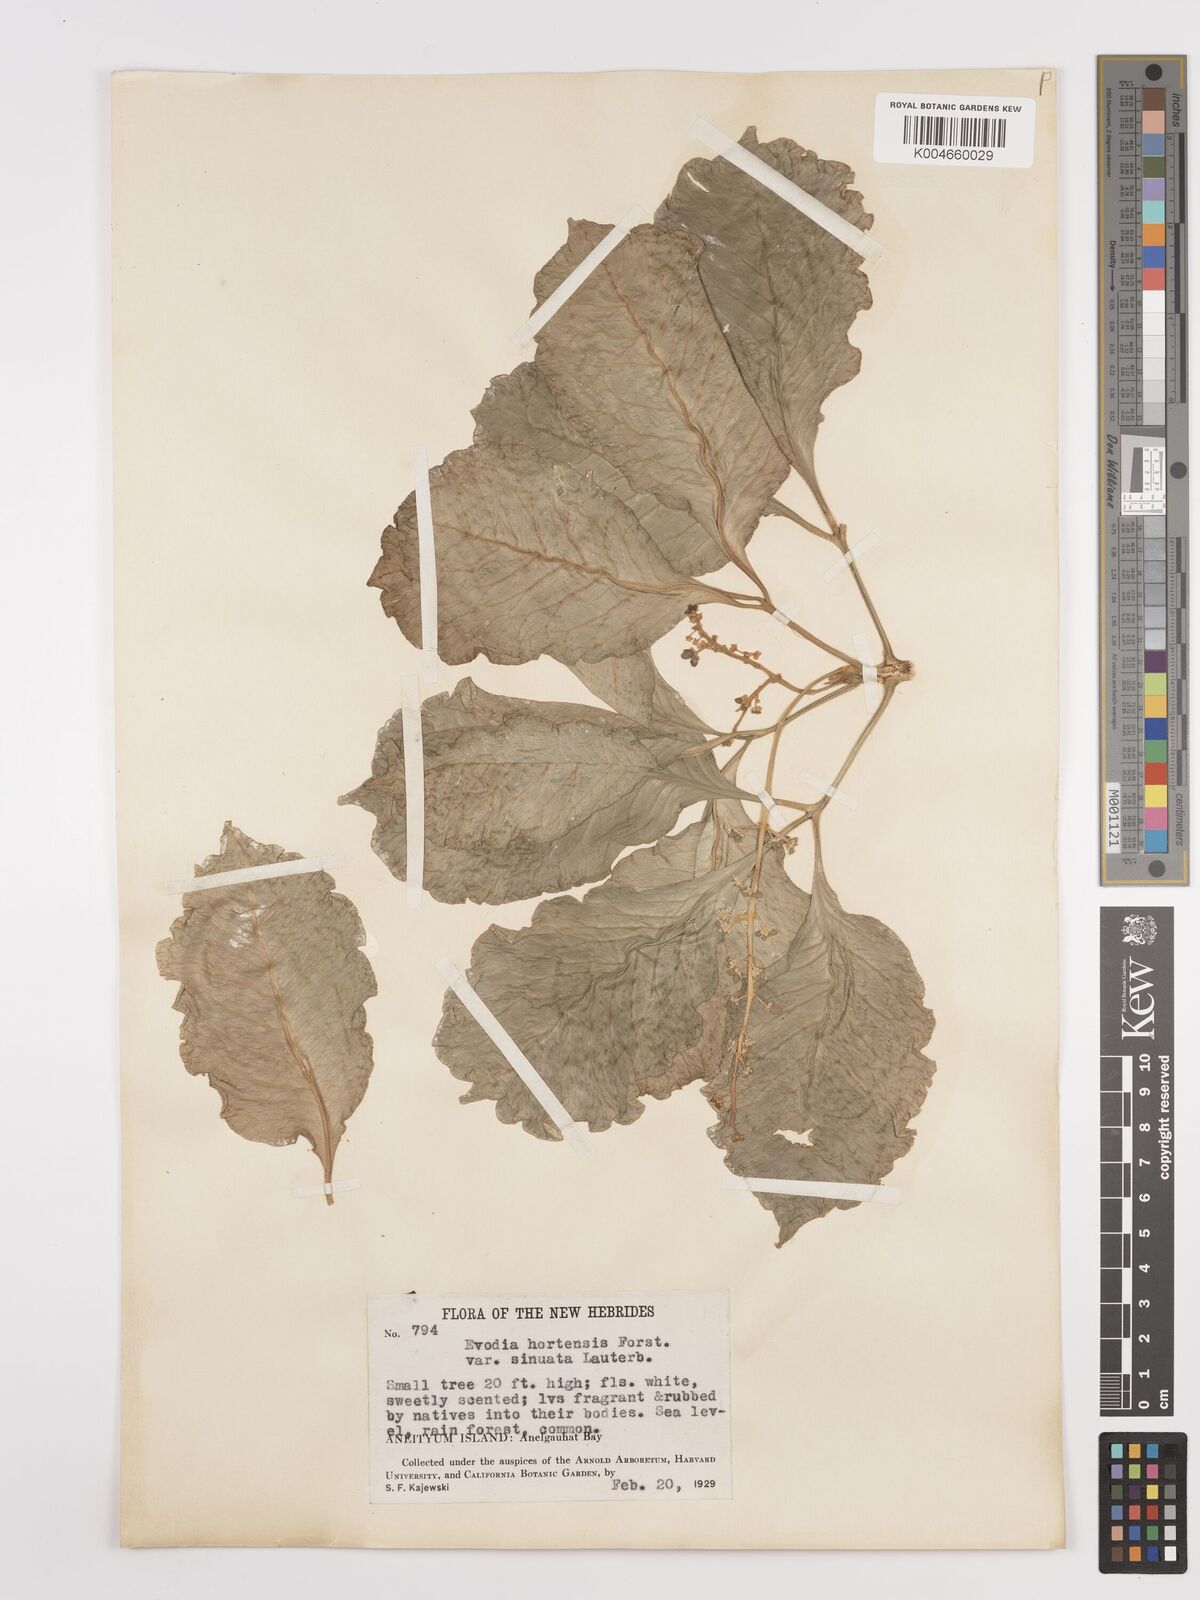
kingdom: Plantae
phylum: Tracheophyta
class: Magnoliopsida
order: Sapindales
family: Rutaceae
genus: Euodia
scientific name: Euodia hortensis
